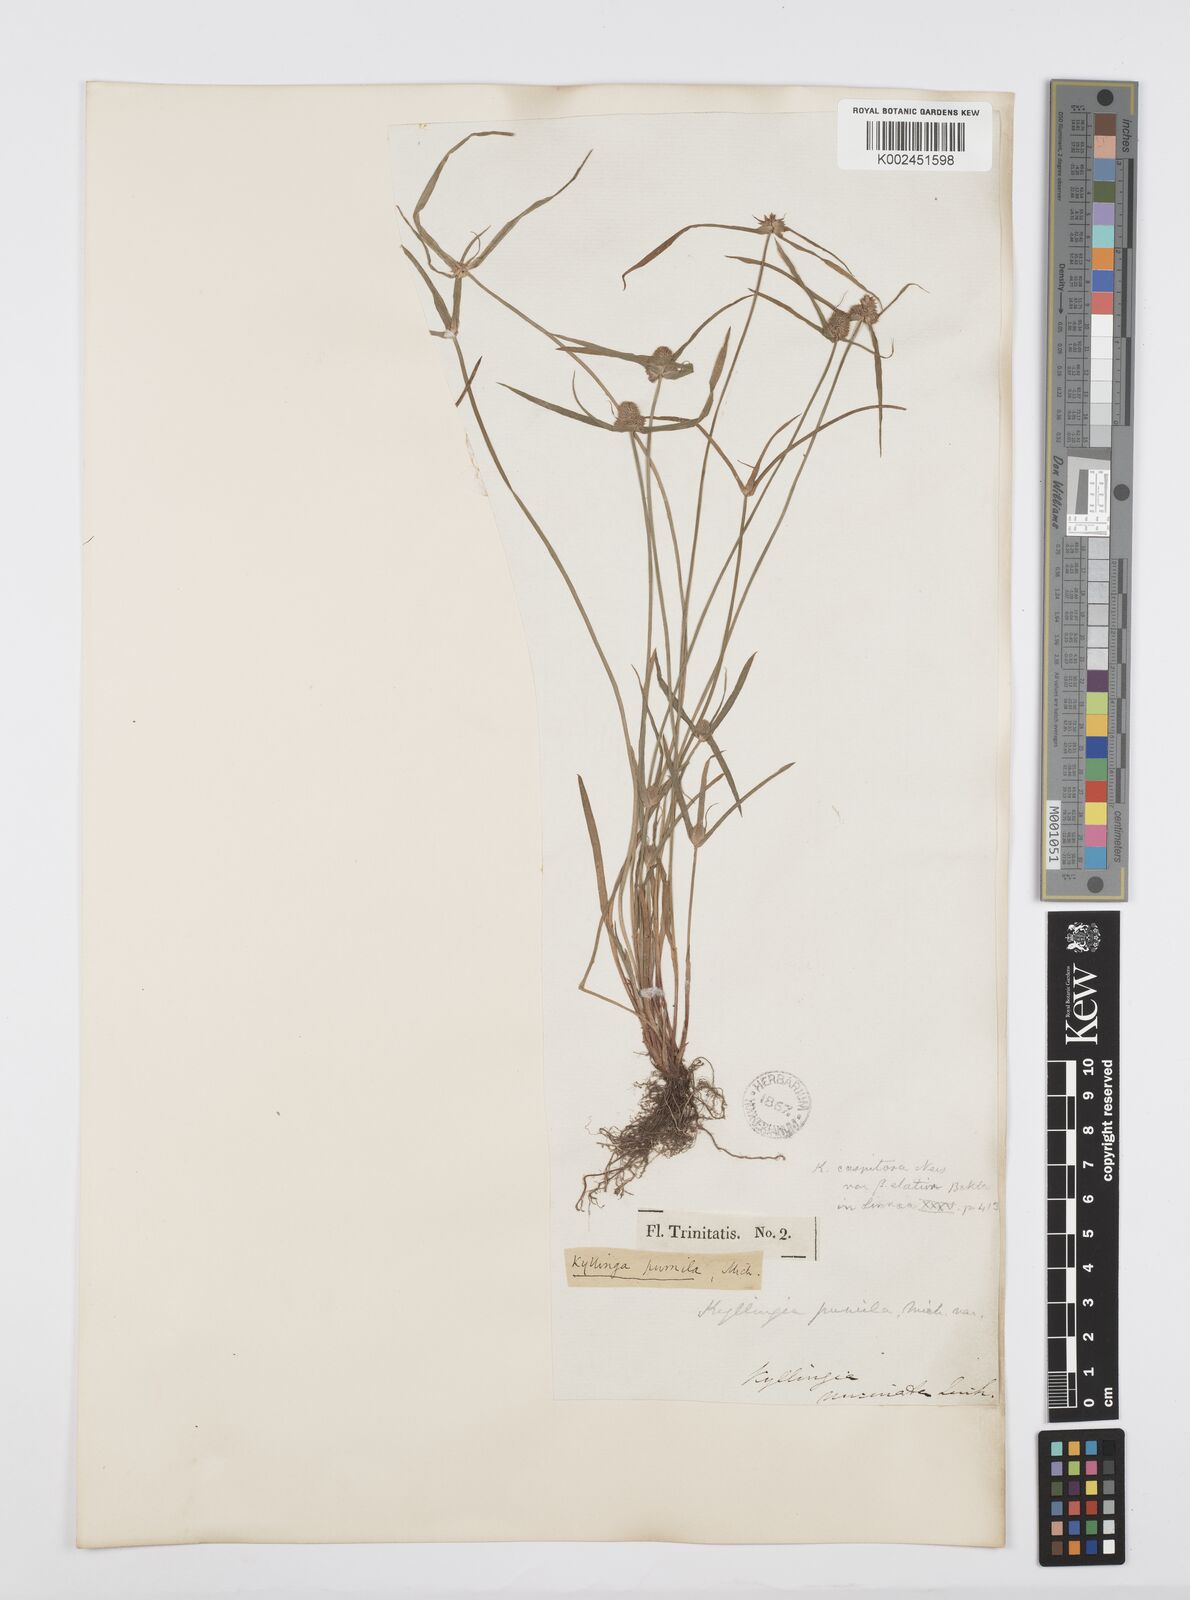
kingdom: Plantae
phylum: Tracheophyta
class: Liliopsida
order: Poales
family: Cyperaceae
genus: Cyperus
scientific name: Cyperus
